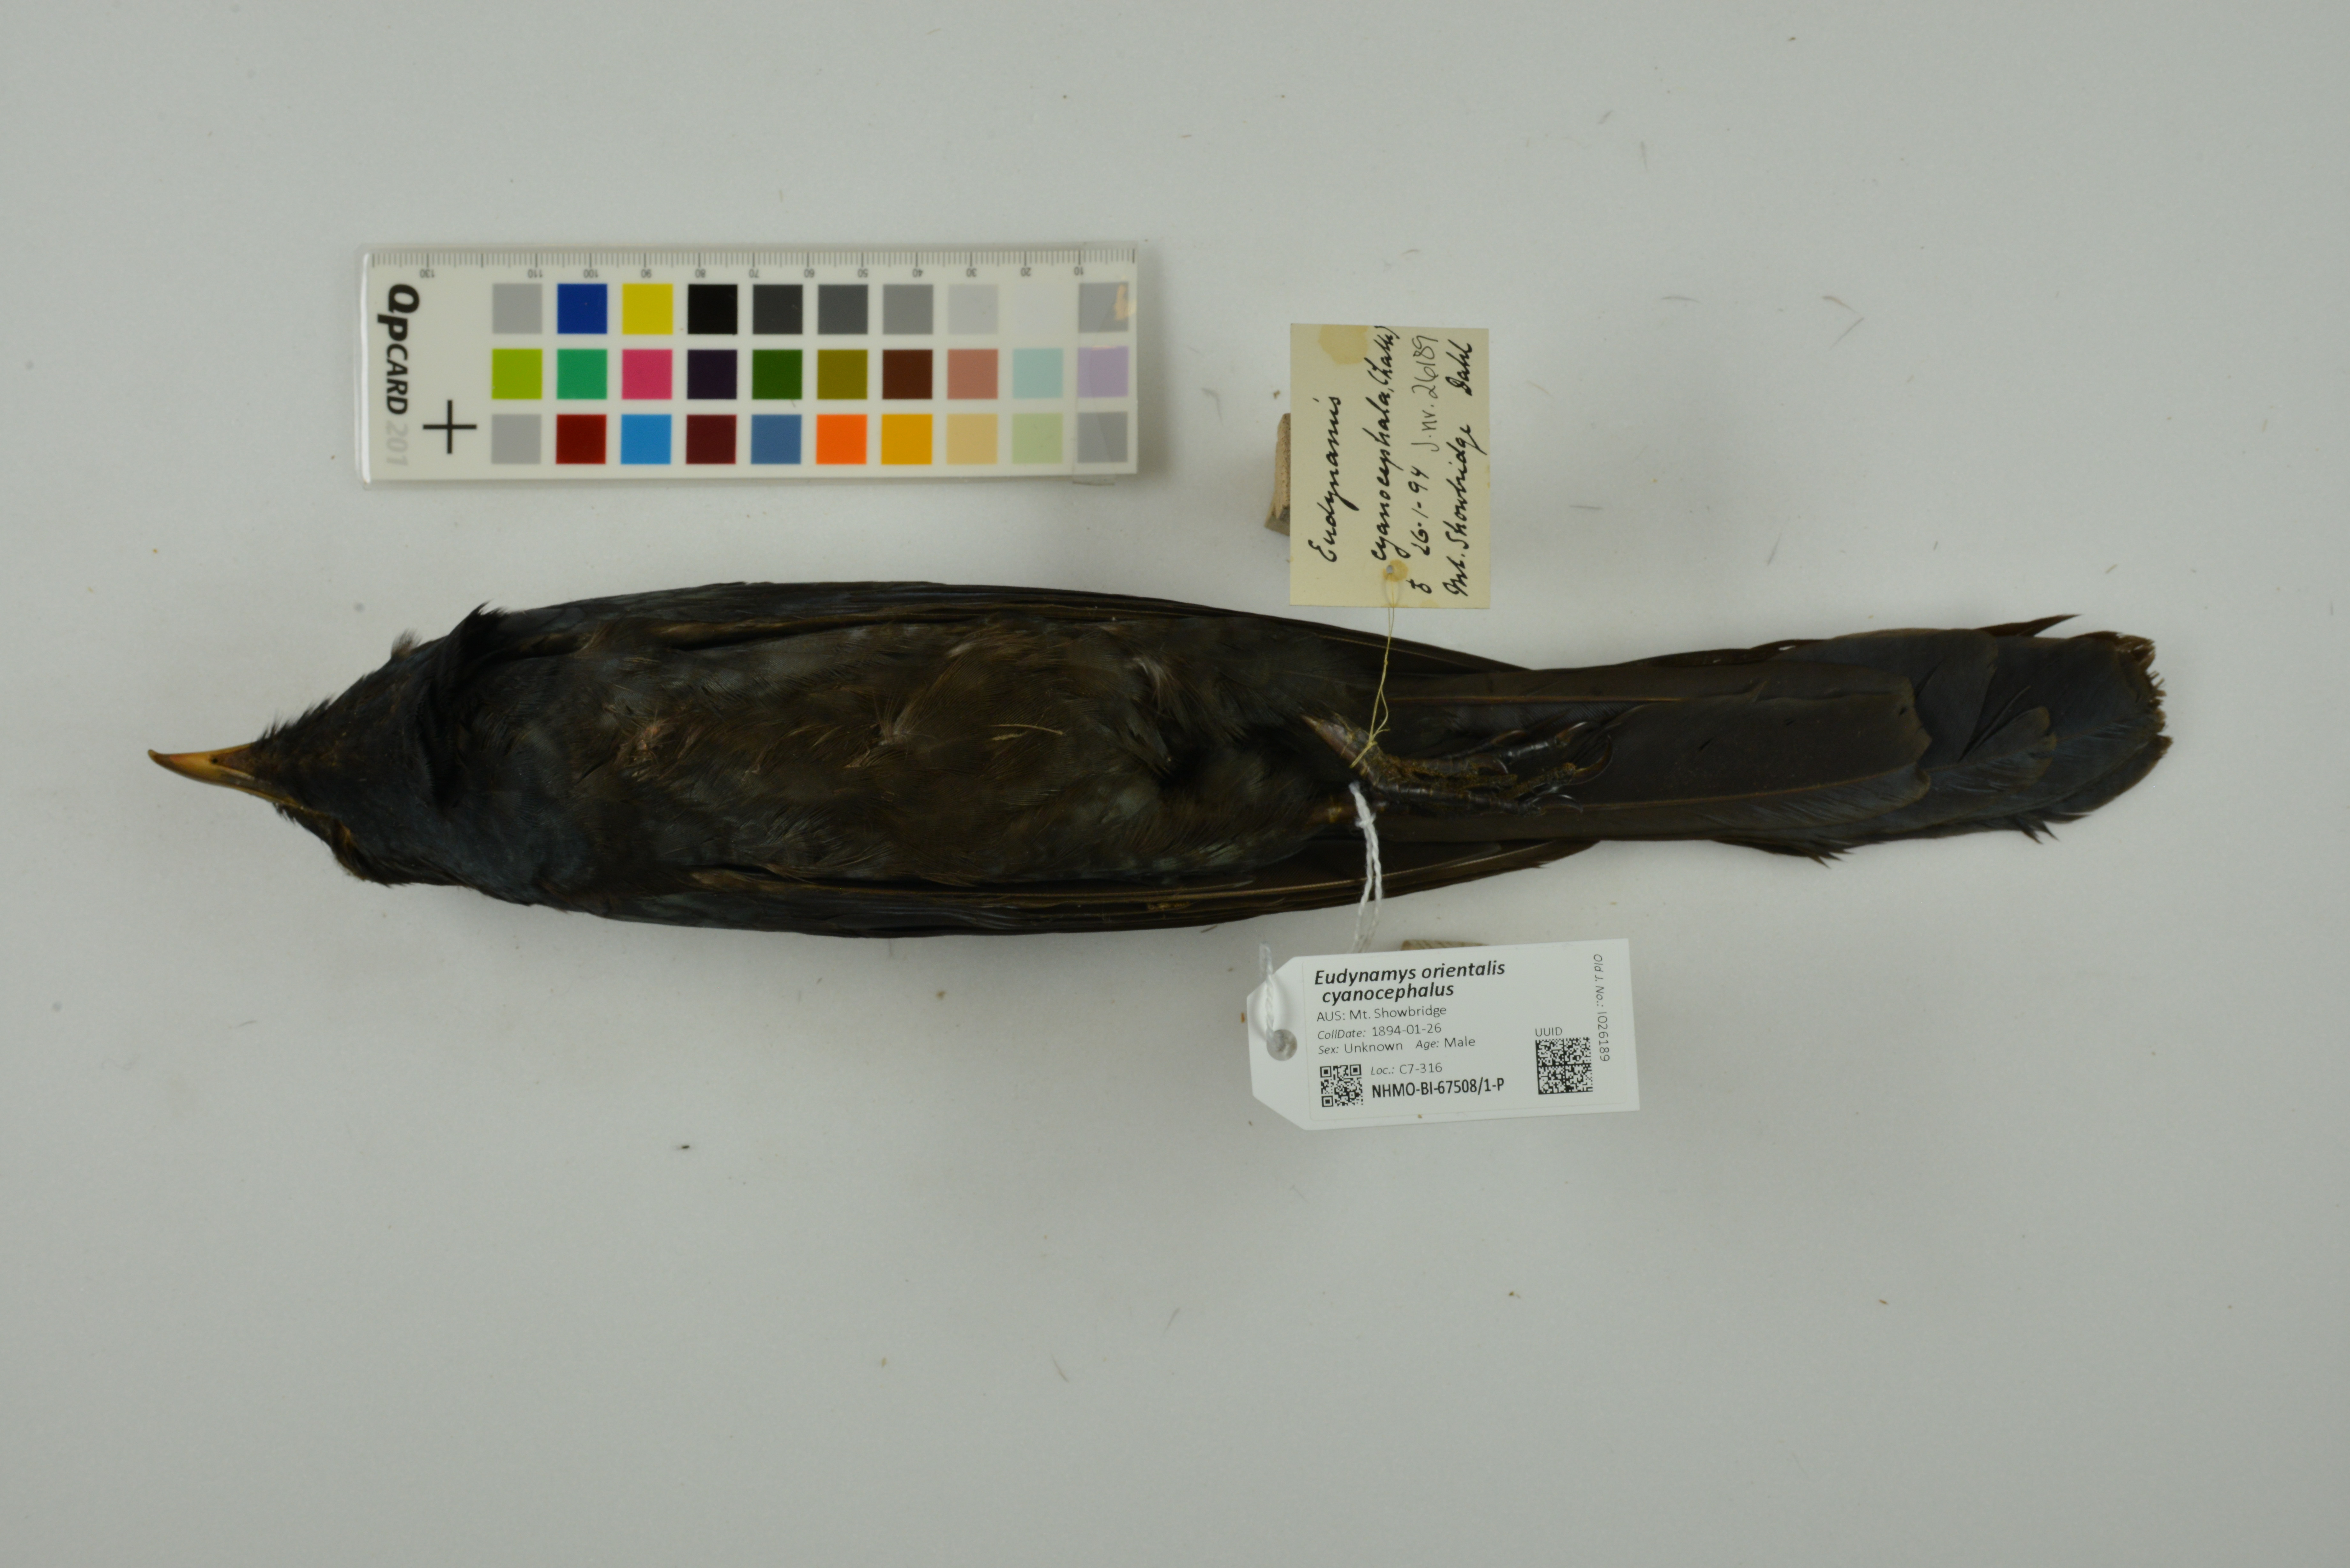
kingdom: Animalia
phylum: Chordata
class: Aves
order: Cuculiformes
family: Cuculidae
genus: Eudynamys
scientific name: Eudynamys scolopaceus
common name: Asian koel
